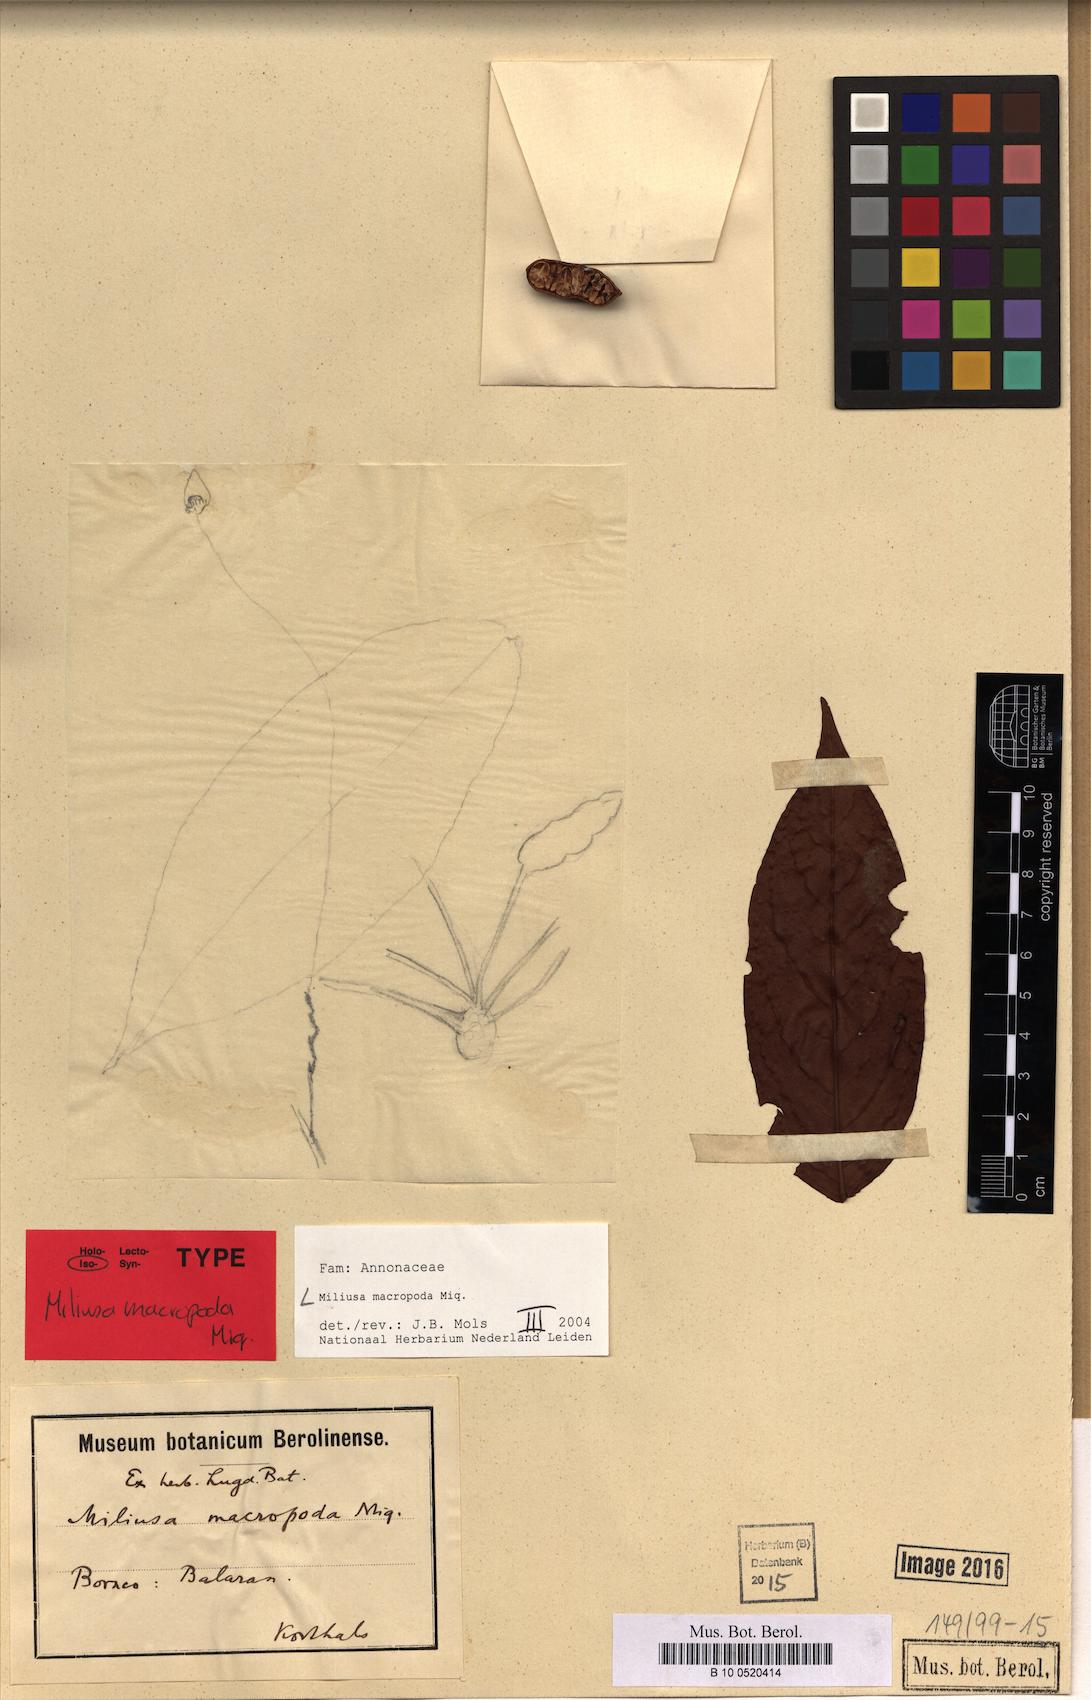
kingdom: Plantae
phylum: Tracheophyta
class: Magnoliopsida
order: Magnoliales
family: Annonaceae
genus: Miliusa
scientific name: Miliusa macropoda
